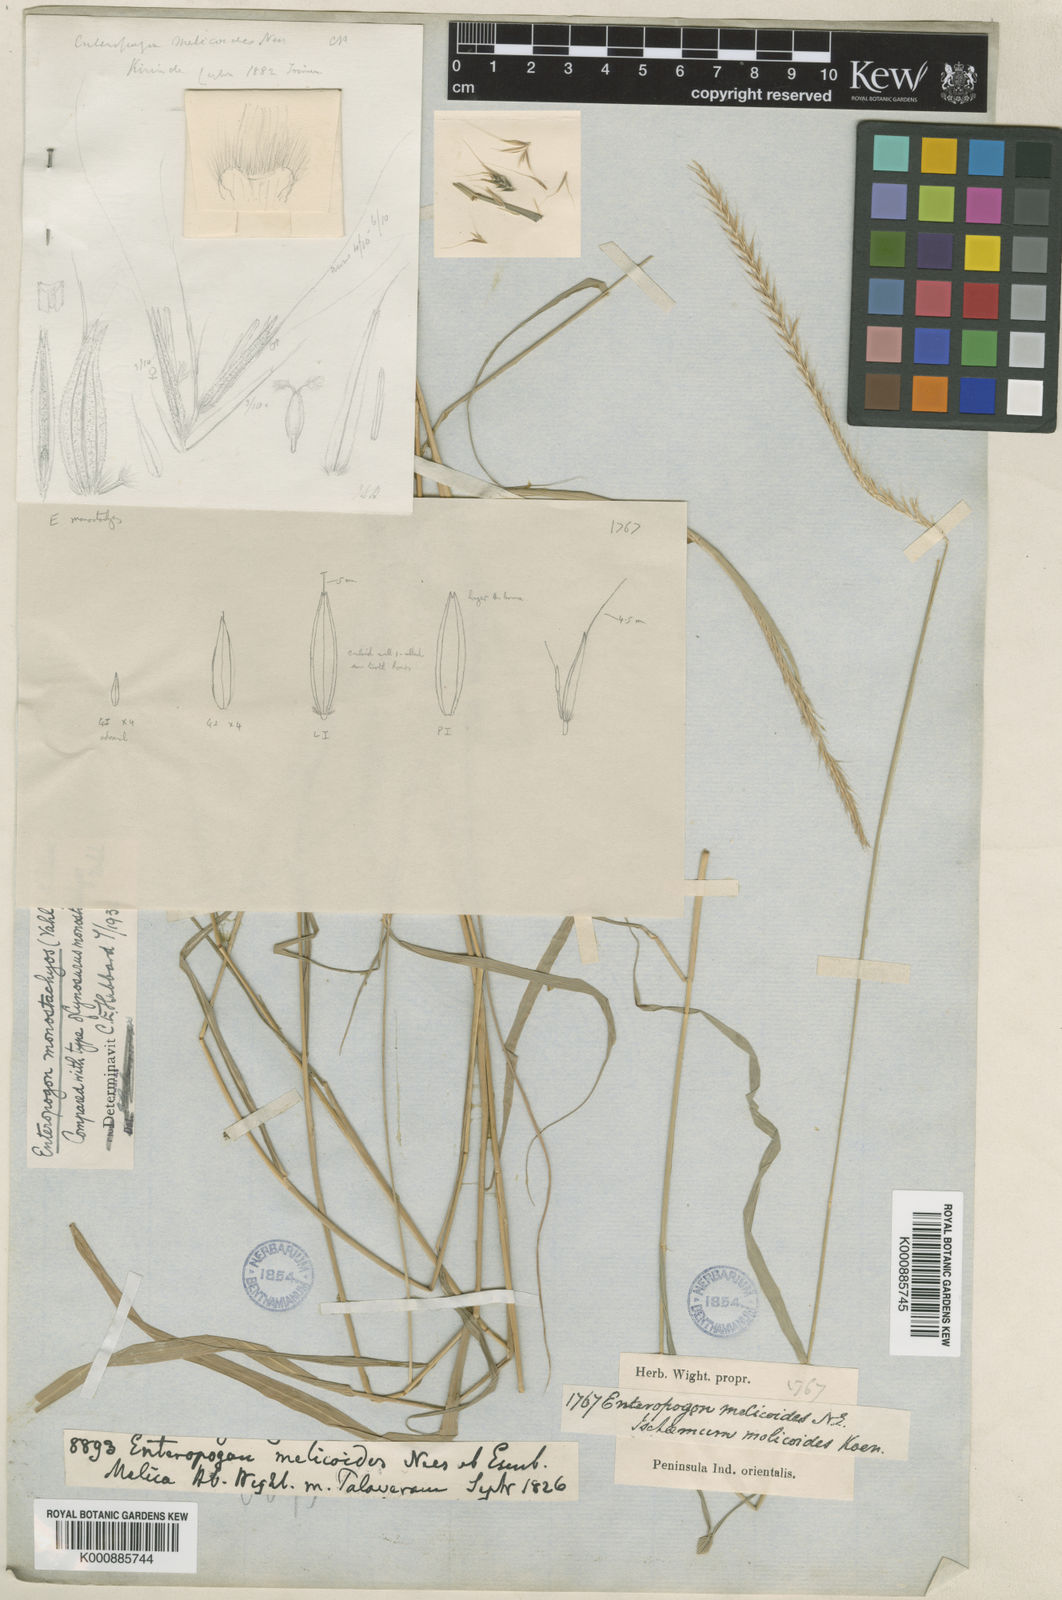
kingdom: Plantae
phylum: Tracheophyta
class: Liliopsida
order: Poales
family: Poaceae
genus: Enteropogon
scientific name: Enteropogon
